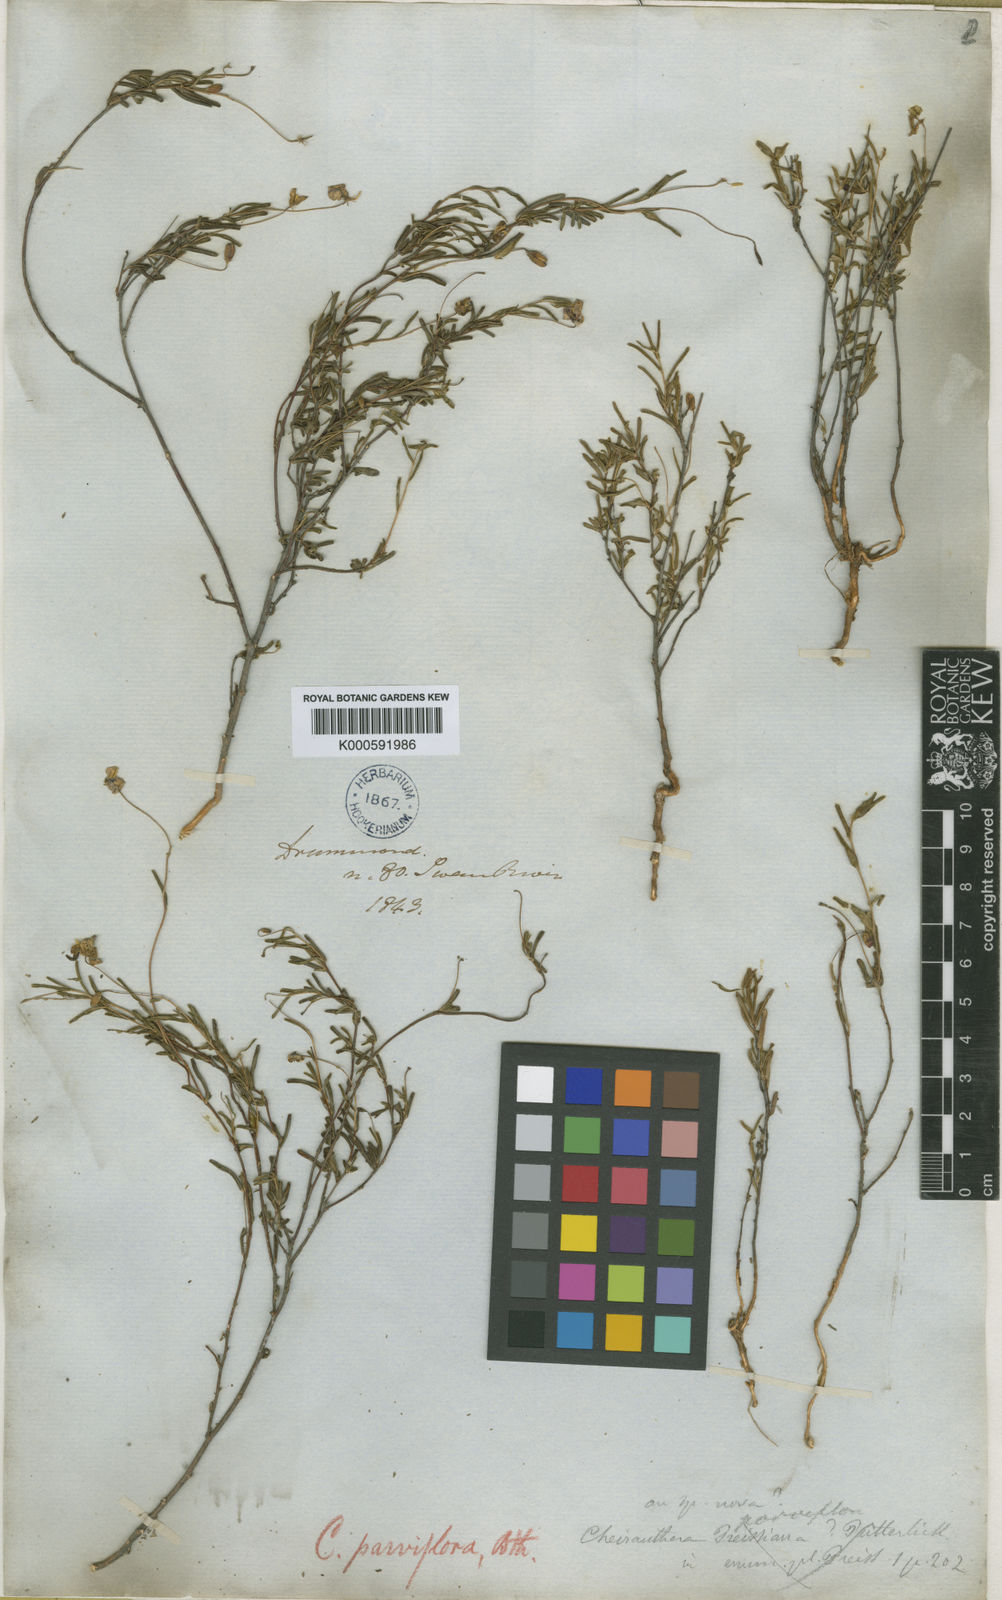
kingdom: Plantae
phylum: Tracheophyta
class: Magnoliopsida
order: Apiales
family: Pittosporaceae
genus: Cheiranthera
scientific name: Cheiranthera parviflora
